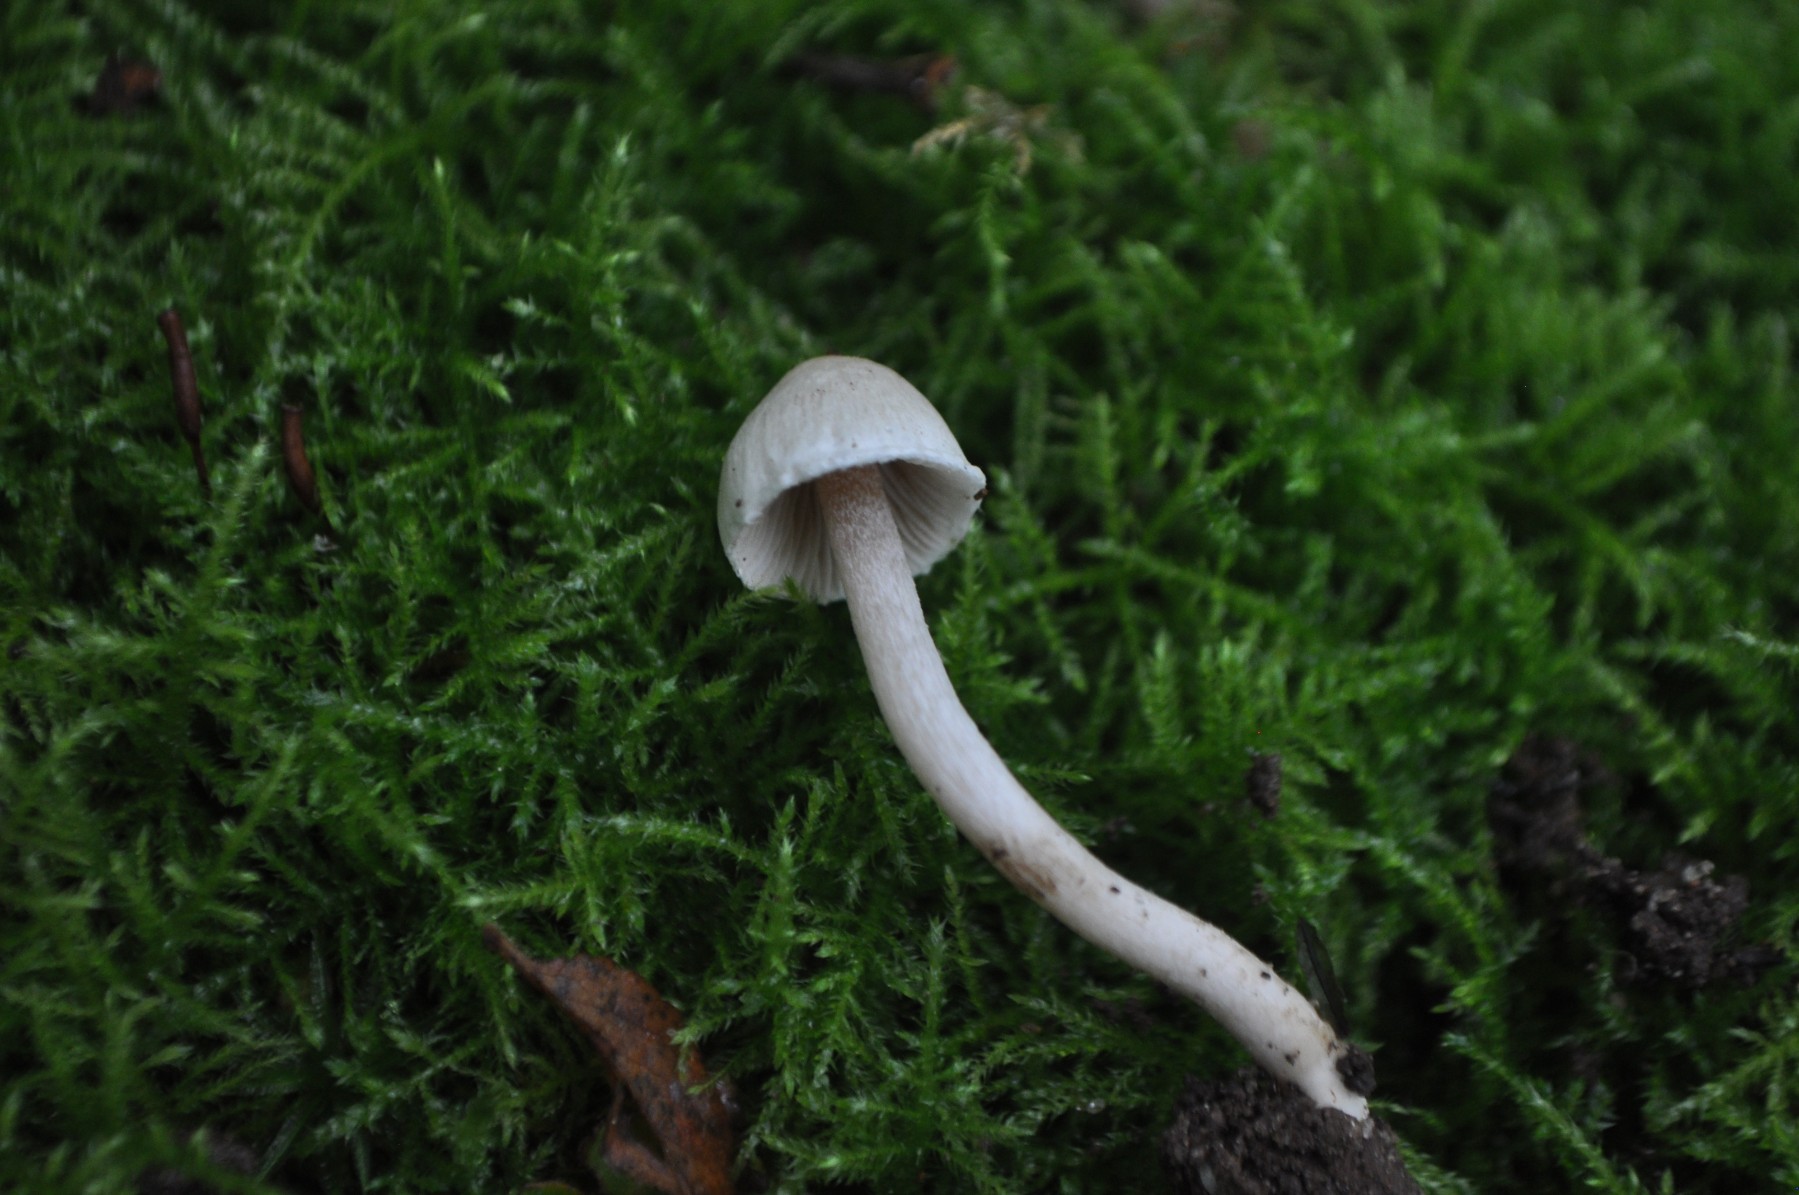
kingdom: Fungi
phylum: Basidiomycota
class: Agaricomycetes
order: Agaricales
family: Inocybaceae
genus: Inocybe
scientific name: Inocybe
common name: almindelig trævlhat
